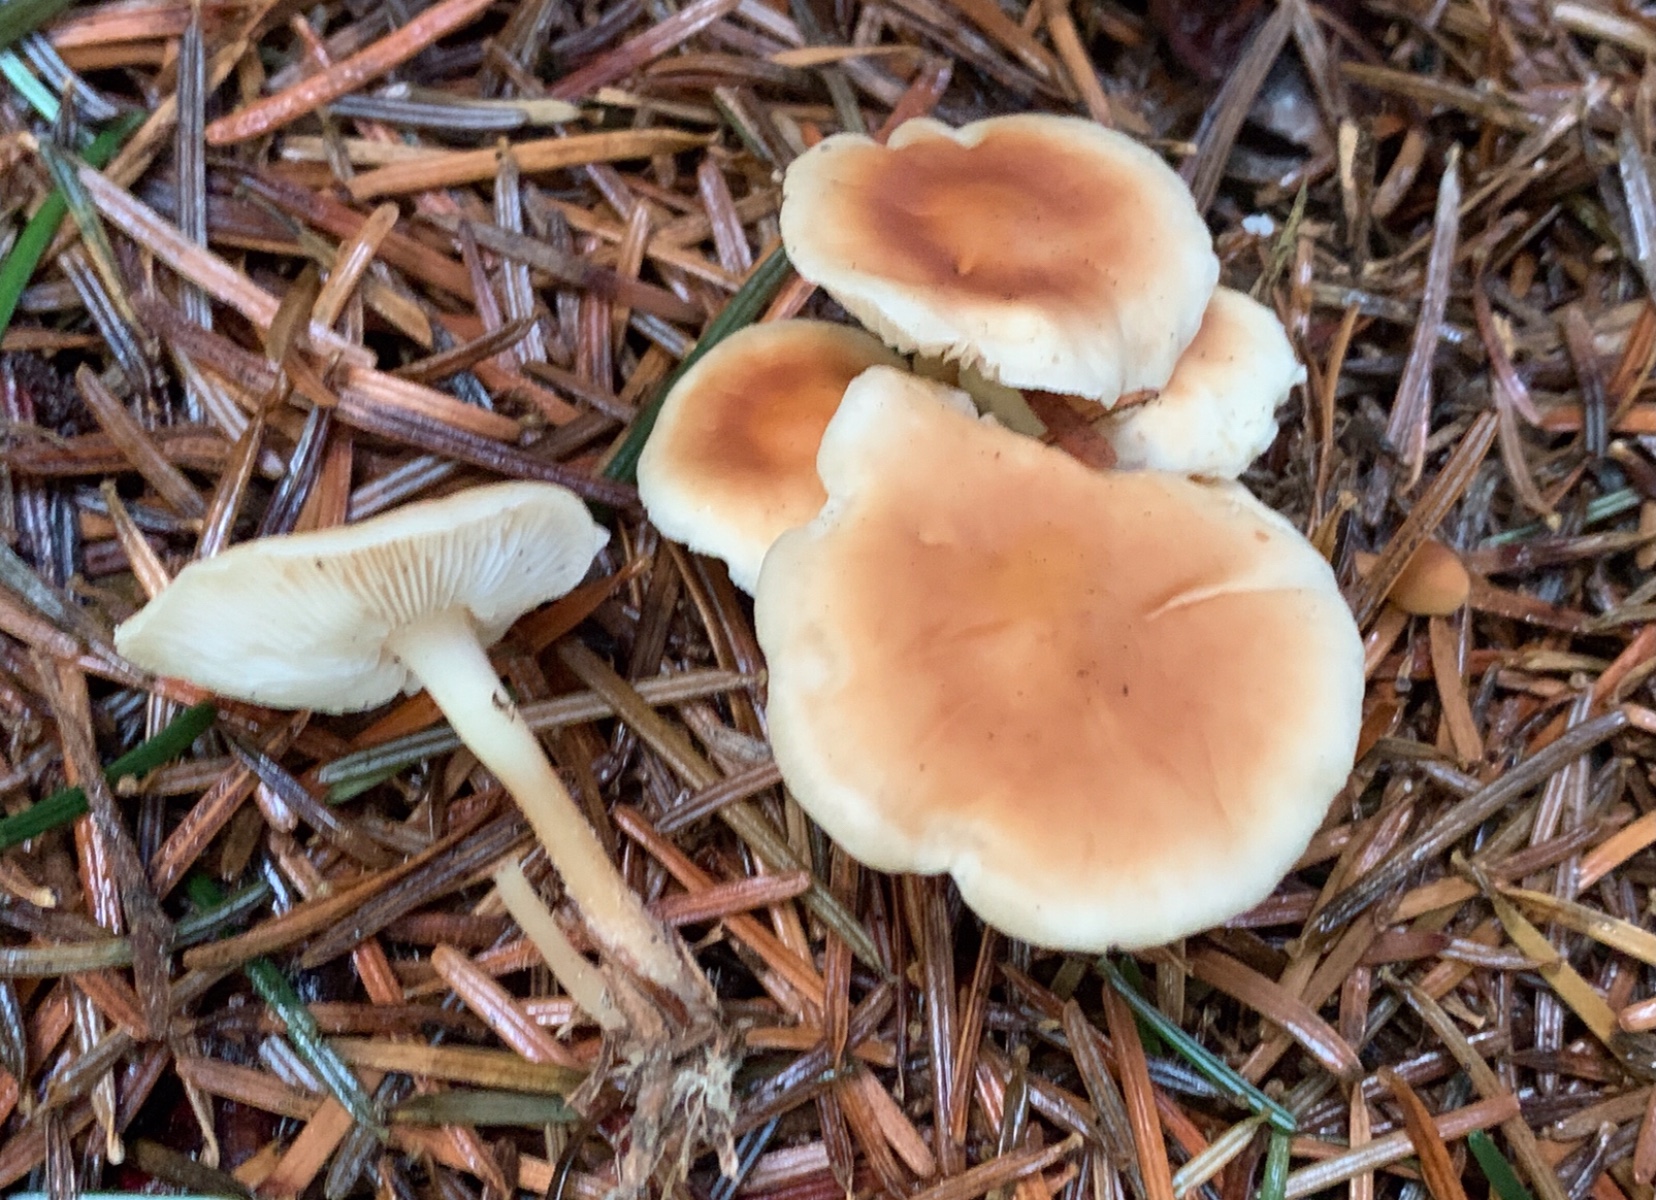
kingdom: Fungi
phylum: Basidiomycota
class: Agaricomycetes
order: Agaricales
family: Omphalotaceae
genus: Gymnopus
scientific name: Gymnopus dryophilus
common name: løv-fladhat
